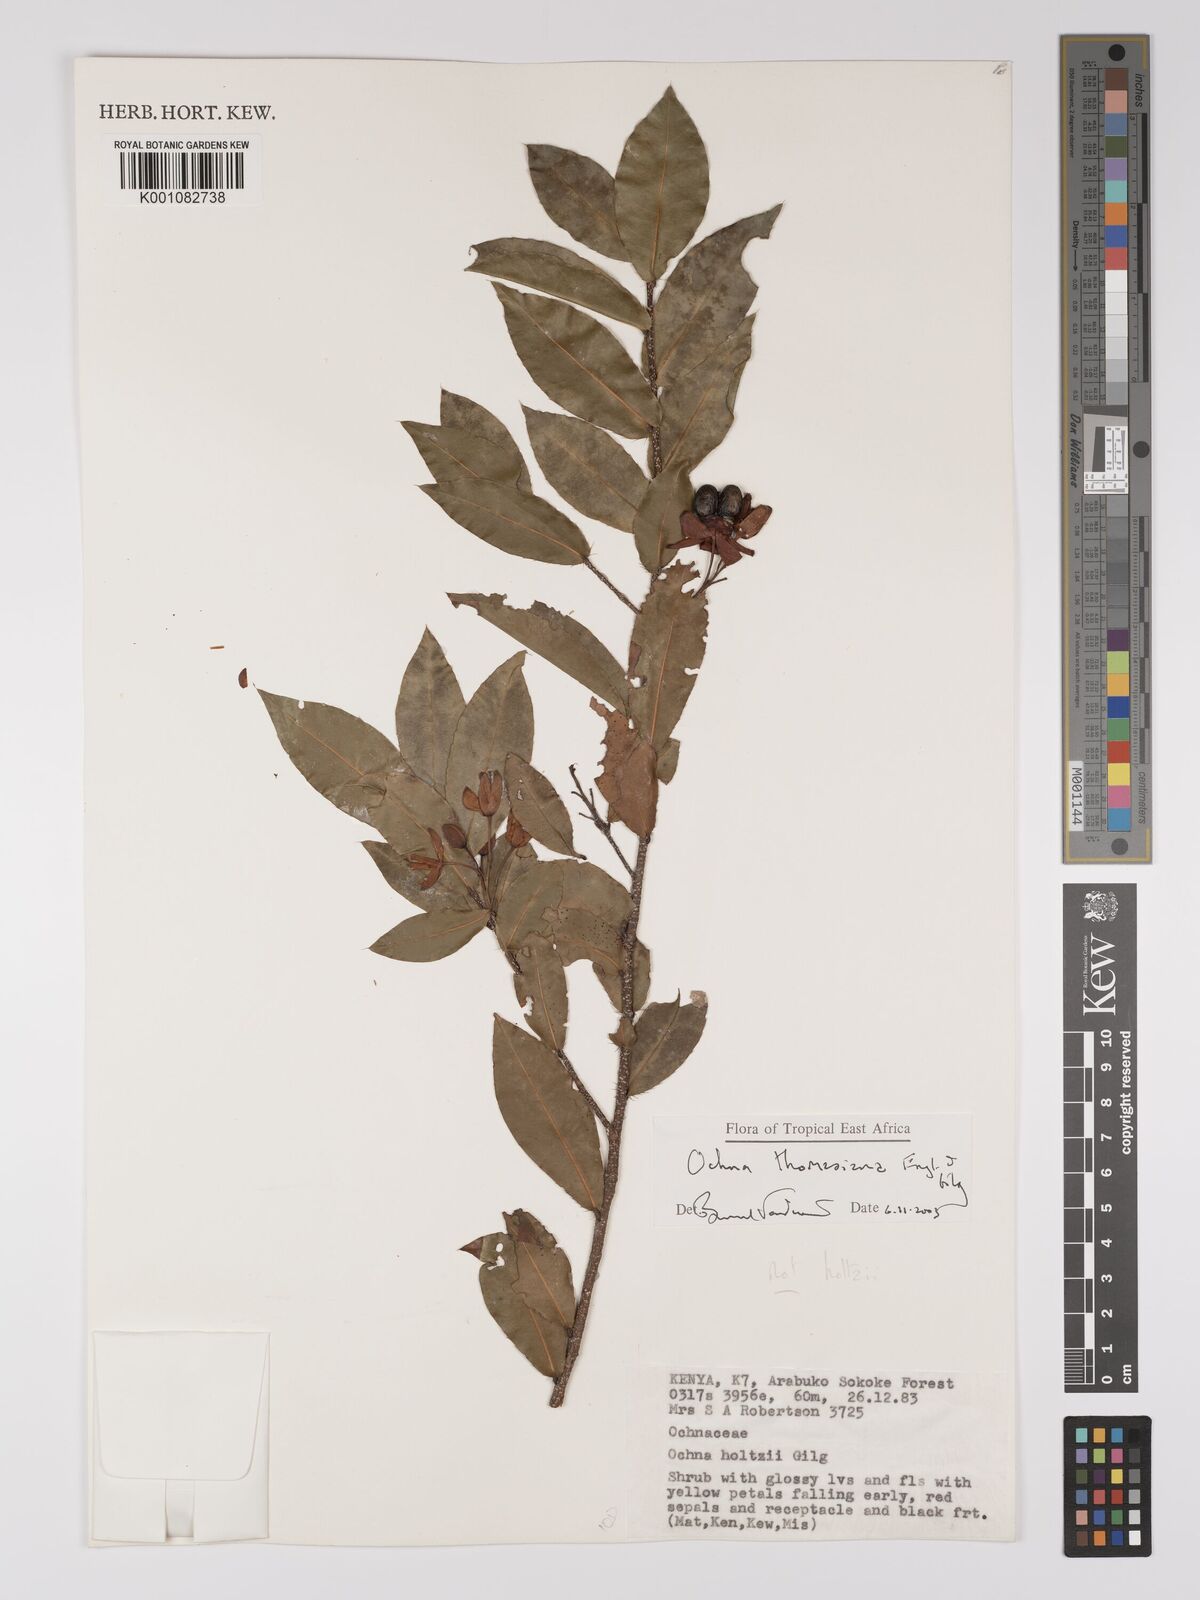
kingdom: Plantae
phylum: Tracheophyta
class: Magnoliopsida
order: Malpighiales
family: Ochnaceae
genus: Ochna
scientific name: Ochna thomasiana
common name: Thomas' bird's-eye bush
